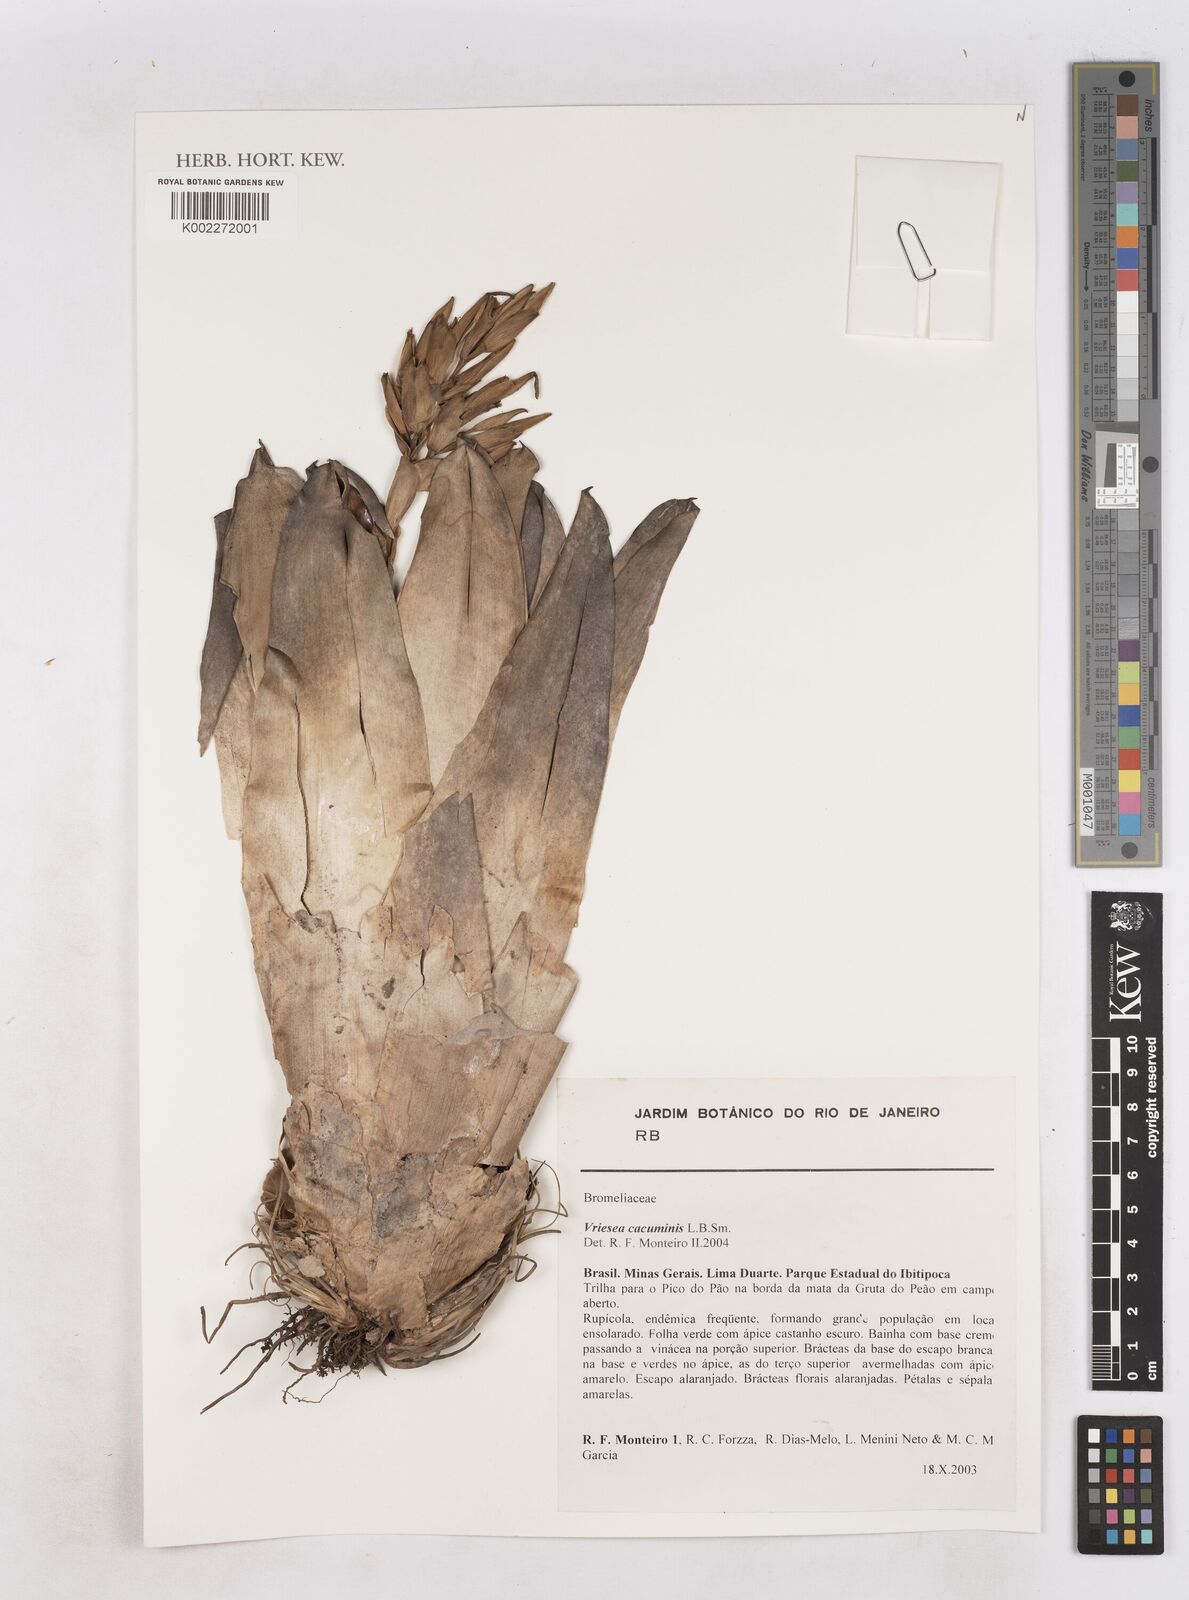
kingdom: Plantae
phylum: Tracheophyta
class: Liliopsida
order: Poales
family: Bromeliaceae
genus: Vriesea
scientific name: Vriesea cacuminis
